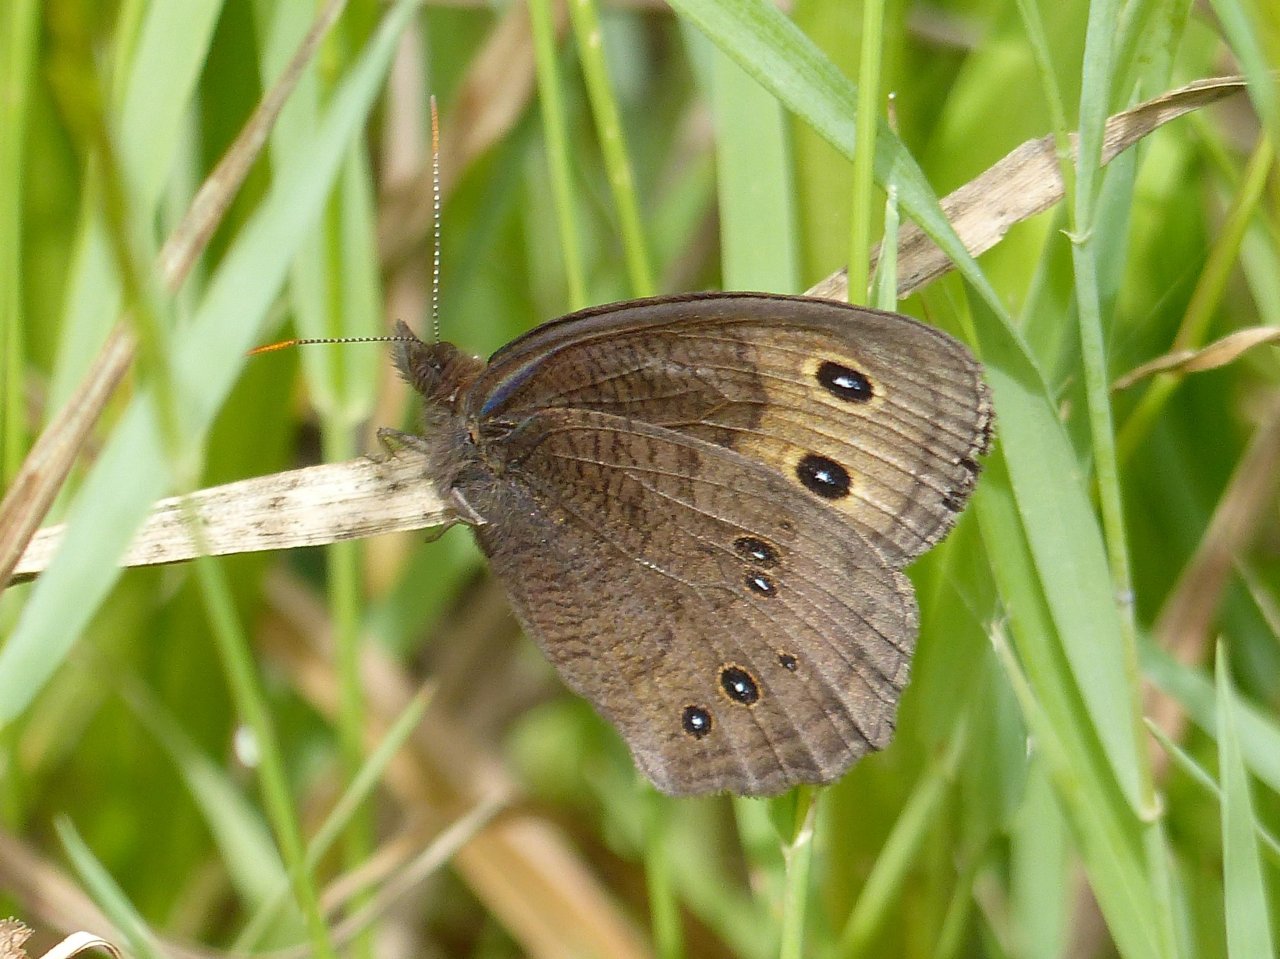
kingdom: Animalia
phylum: Arthropoda
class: Insecta
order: Lepidoptera
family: Nymphalidae
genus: Cercyonis
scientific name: Cercyonis pegala
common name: Common Wood-Nymph
